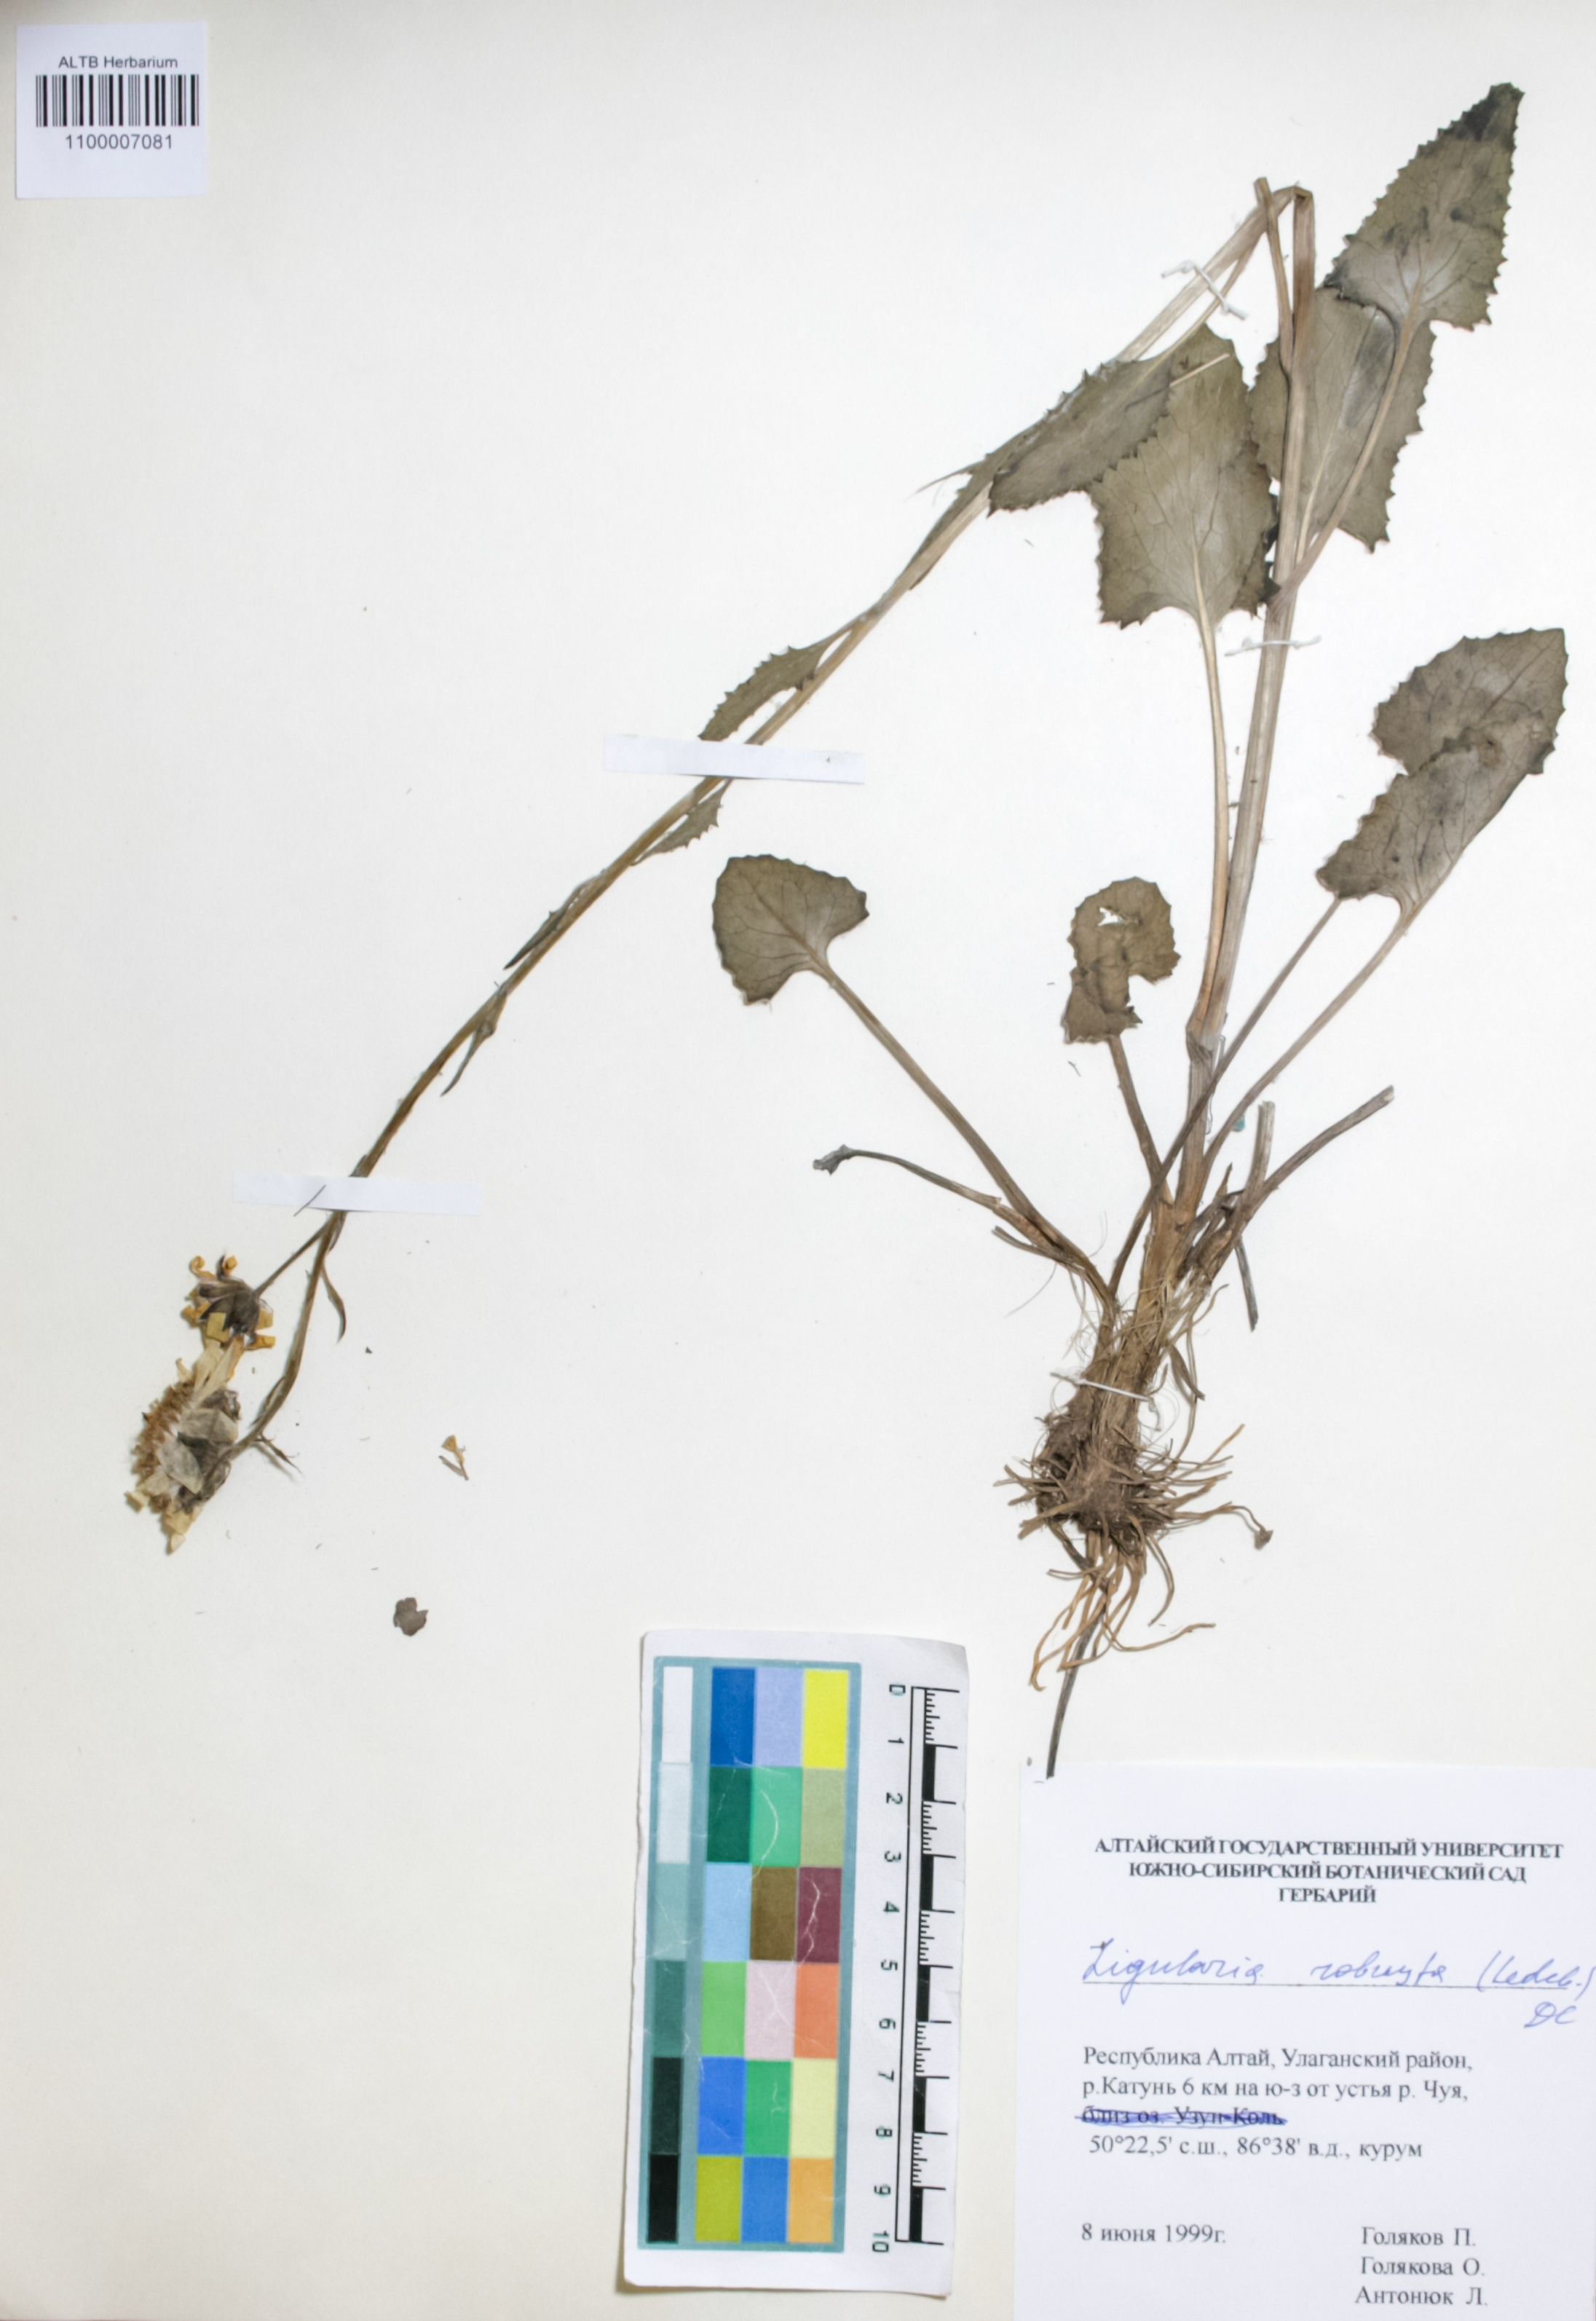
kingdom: Plantae
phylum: Tracheophyta
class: Magnoliopsida
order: Asterales
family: Asteraceae
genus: Vickifunkia
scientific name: Vickifunkia robusta
